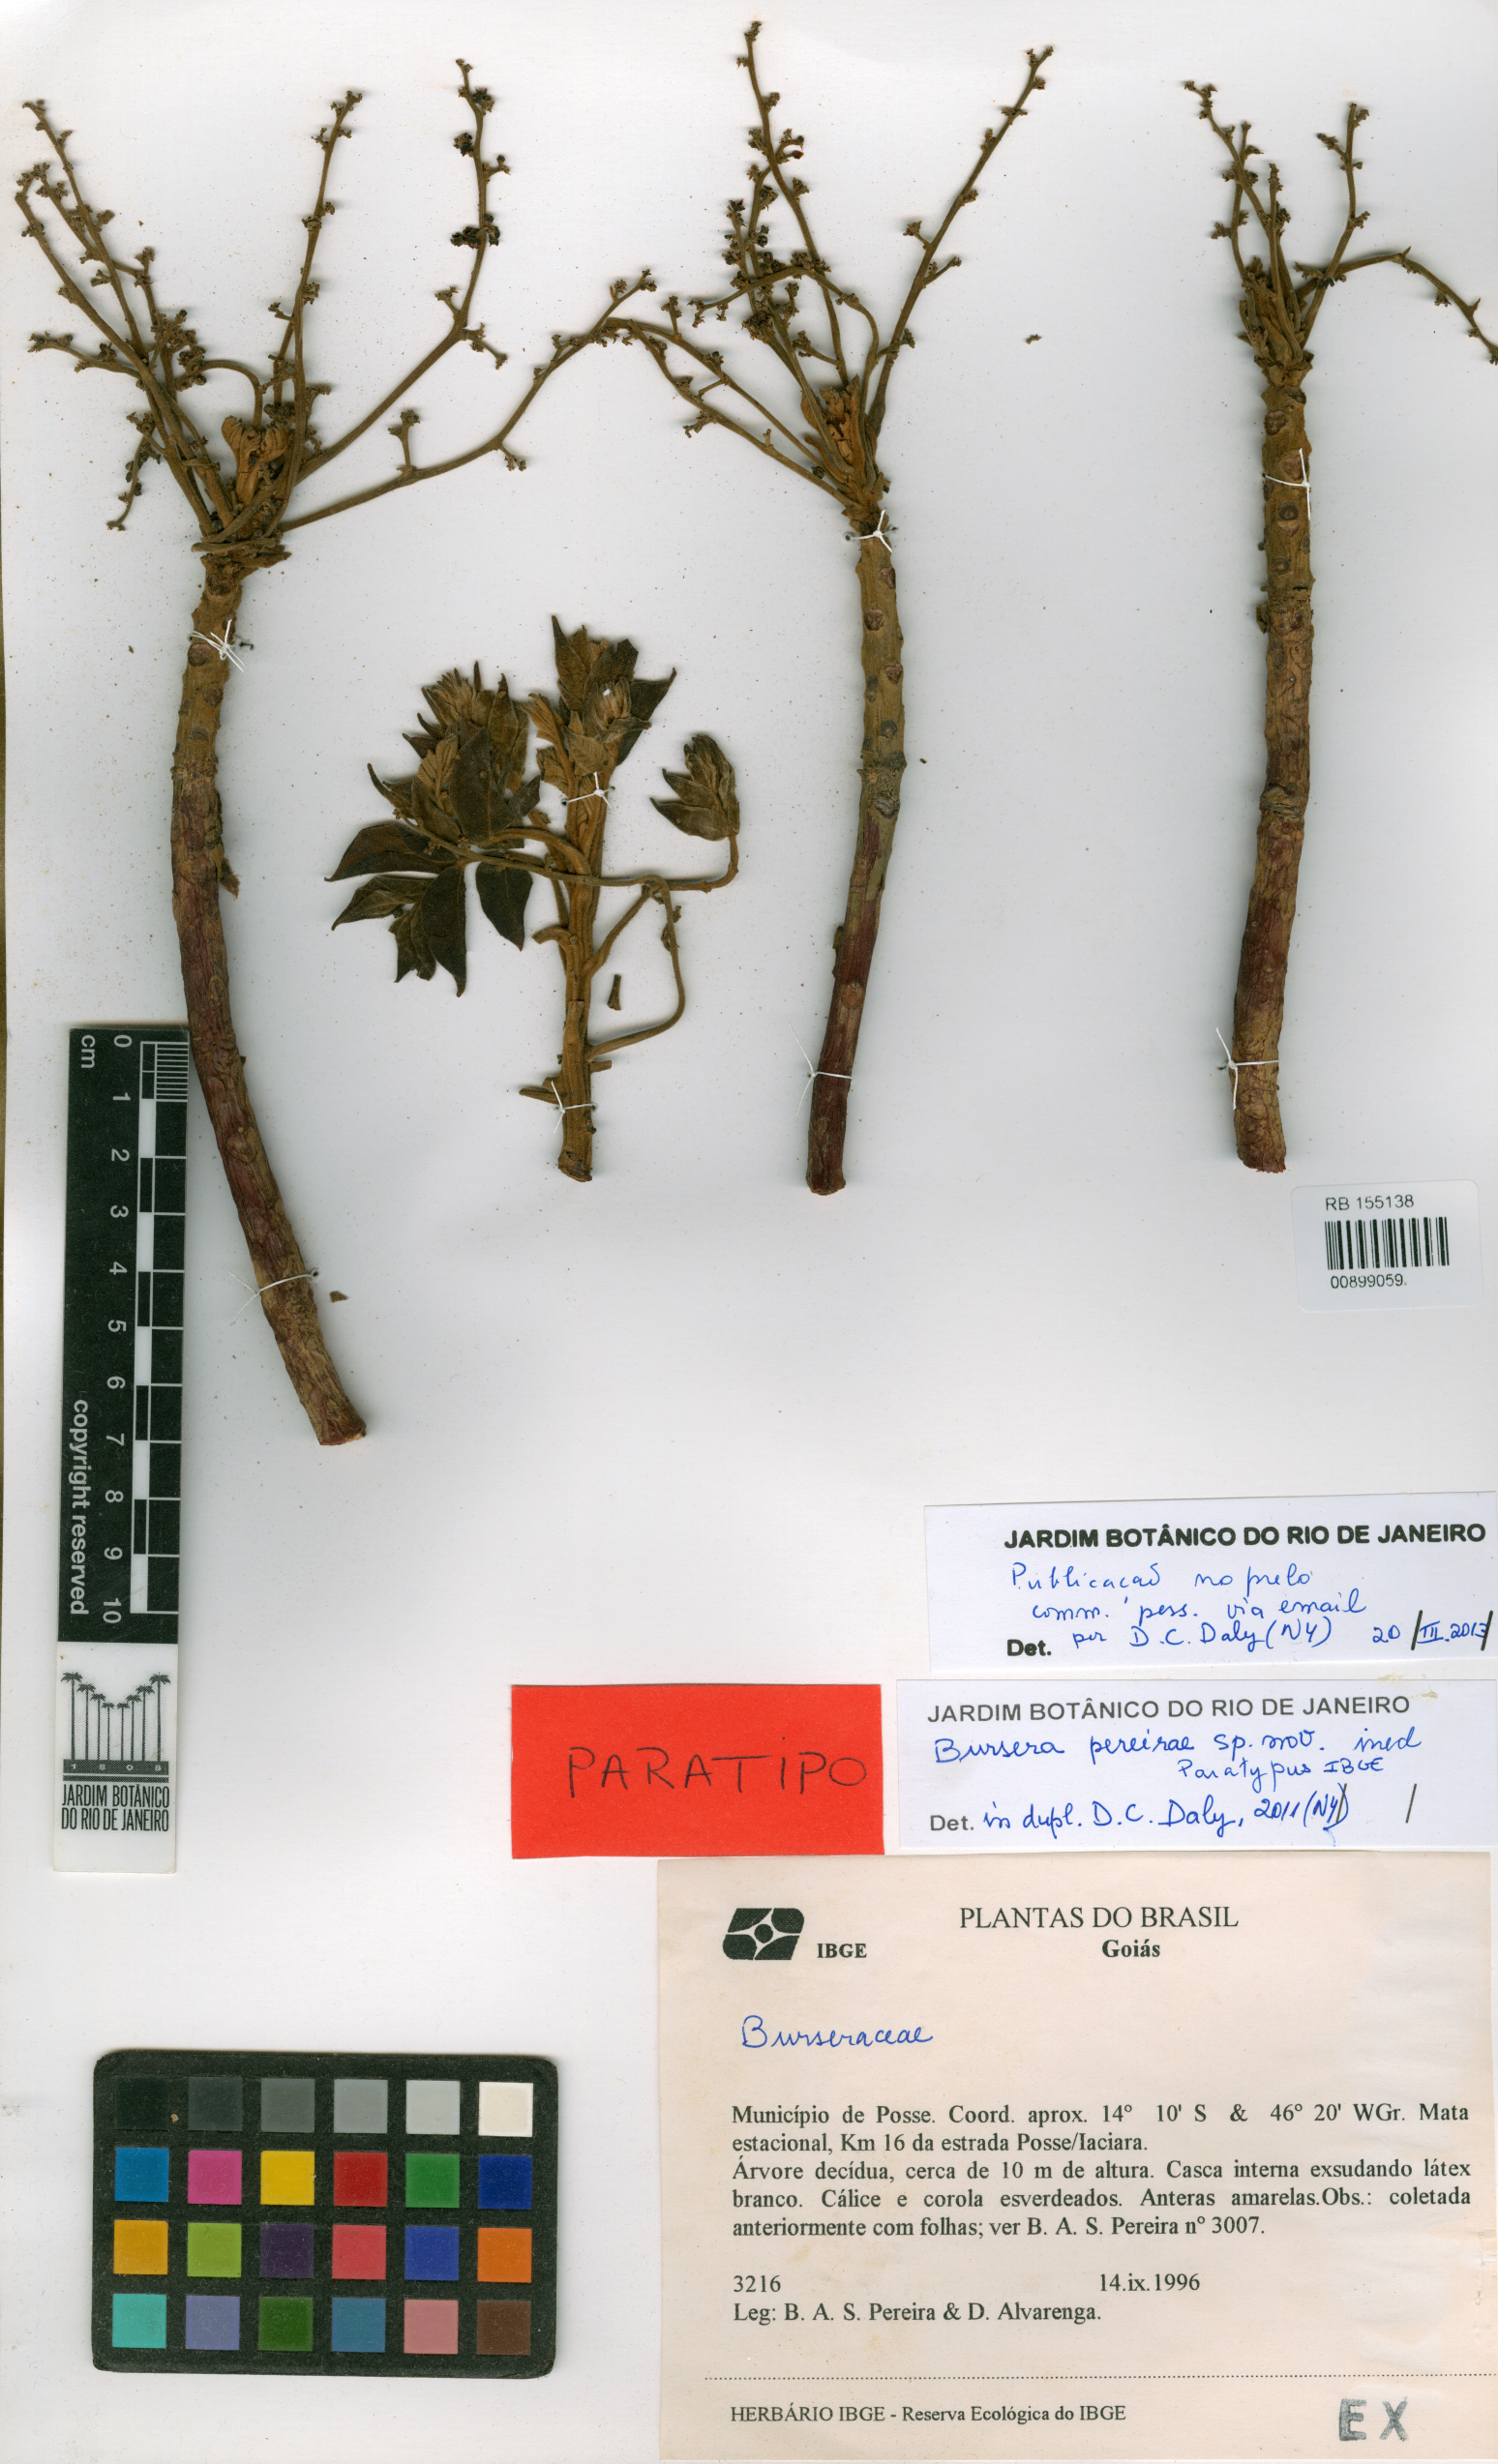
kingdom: Plantae
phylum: Tracheophyta
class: Magnoliopsida
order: Sapindales
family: Burseraceae
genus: Bursera
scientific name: Bursera pereirae
